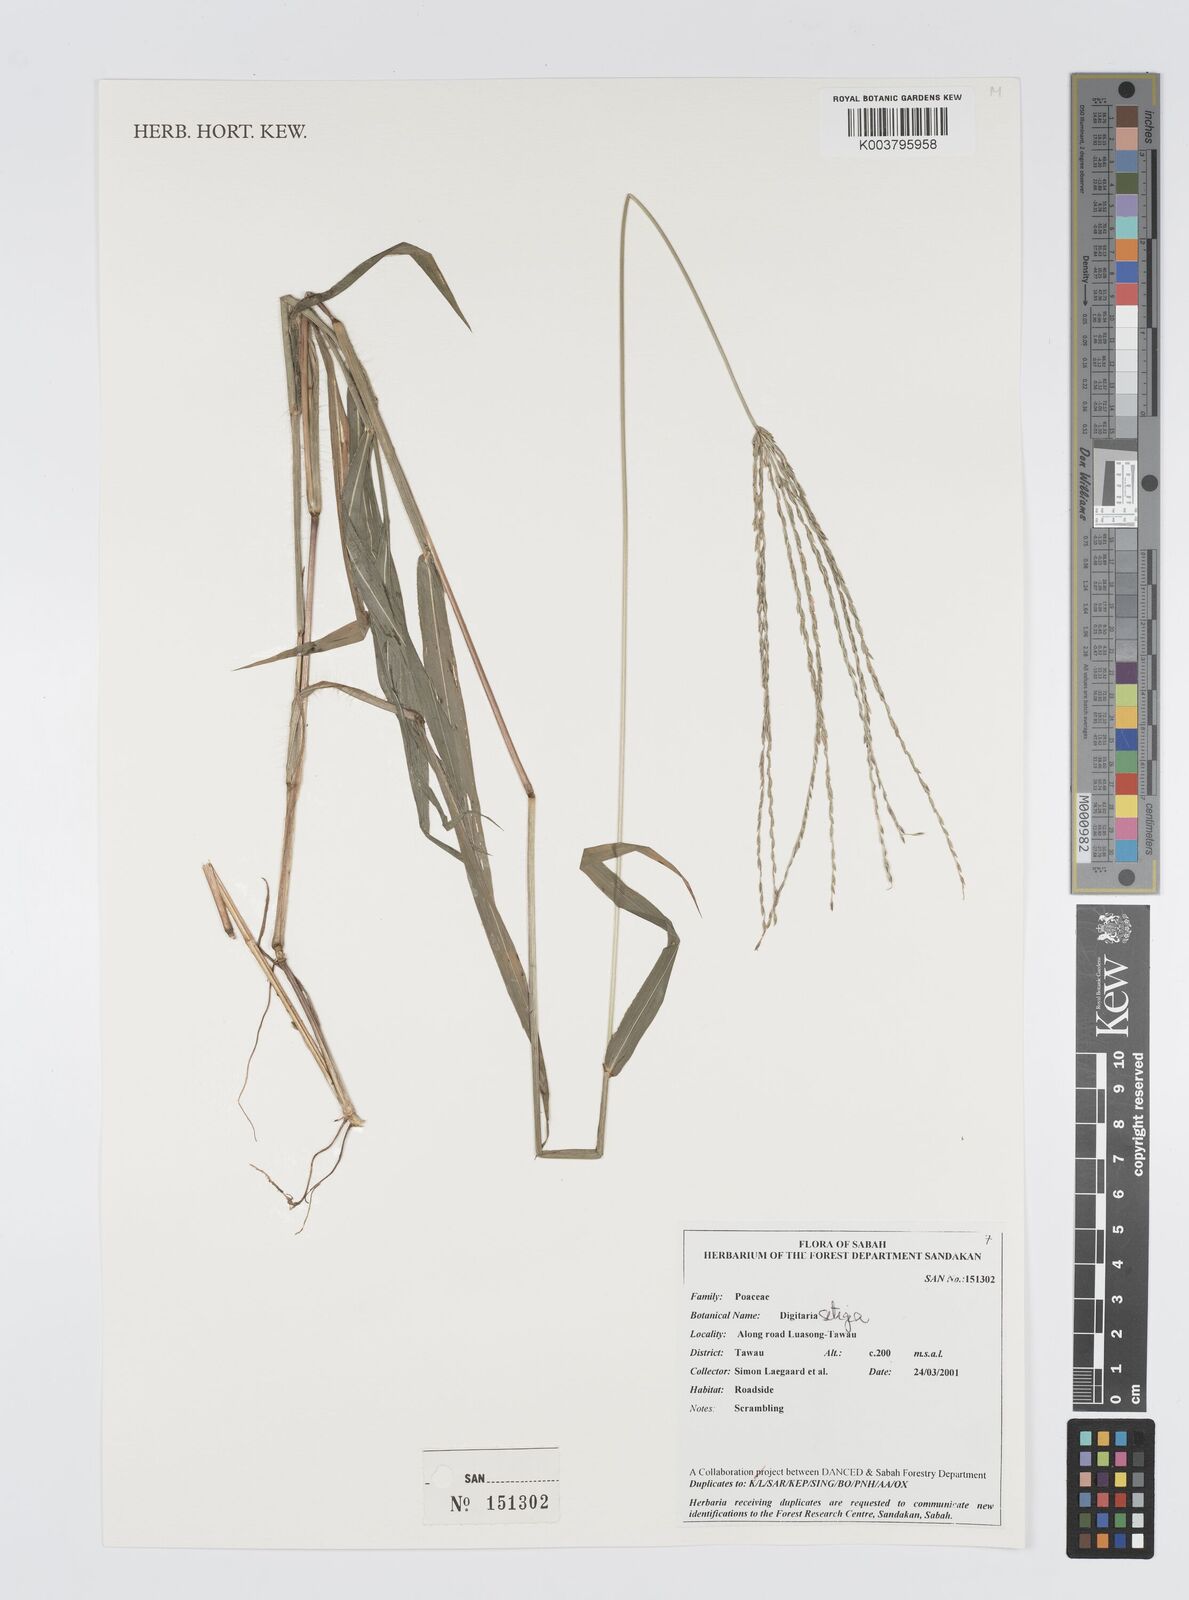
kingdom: Plantae
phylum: Tracheophyta
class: Liliopsida
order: Poales
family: Poaceae
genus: Digitaria
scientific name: Digitaria setigera
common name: East indian crabgrass
